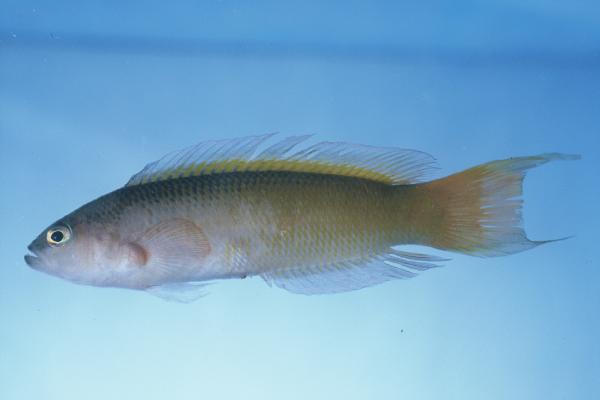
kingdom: Animalia
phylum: Chordata
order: Perciformes
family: Pseudochromidae
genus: Pseudochromis
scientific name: Pseudochromis natalensis
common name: Natal dottyback
